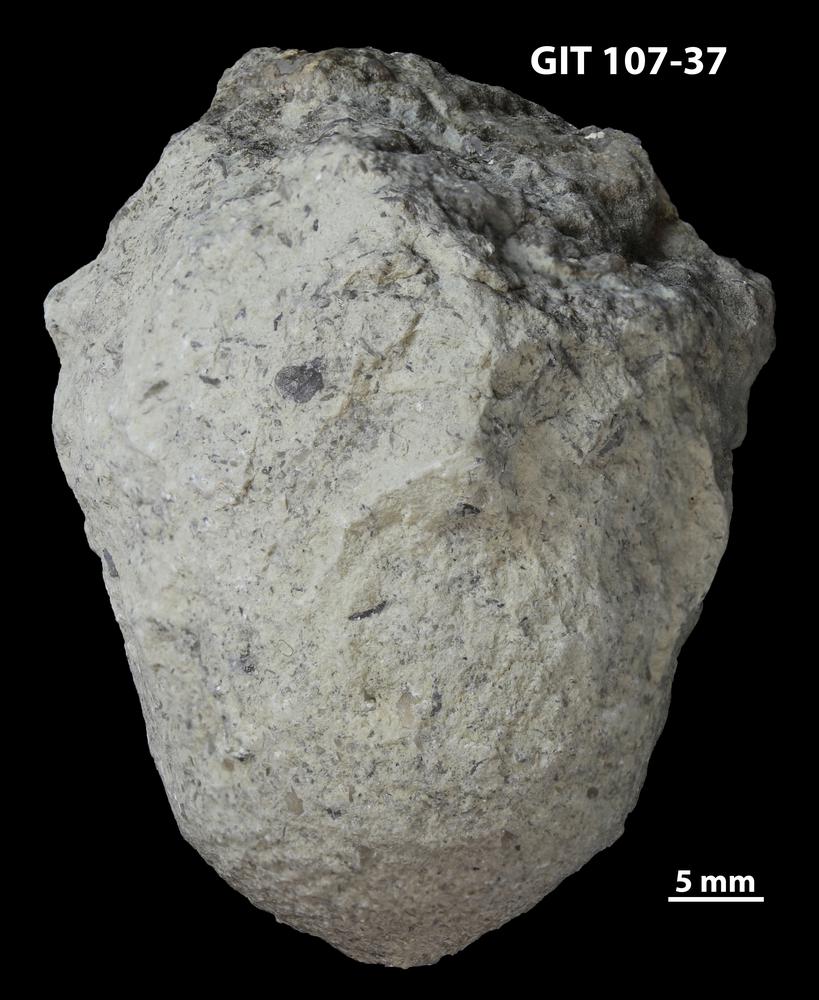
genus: Amphorichnus
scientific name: Amphorichnus
